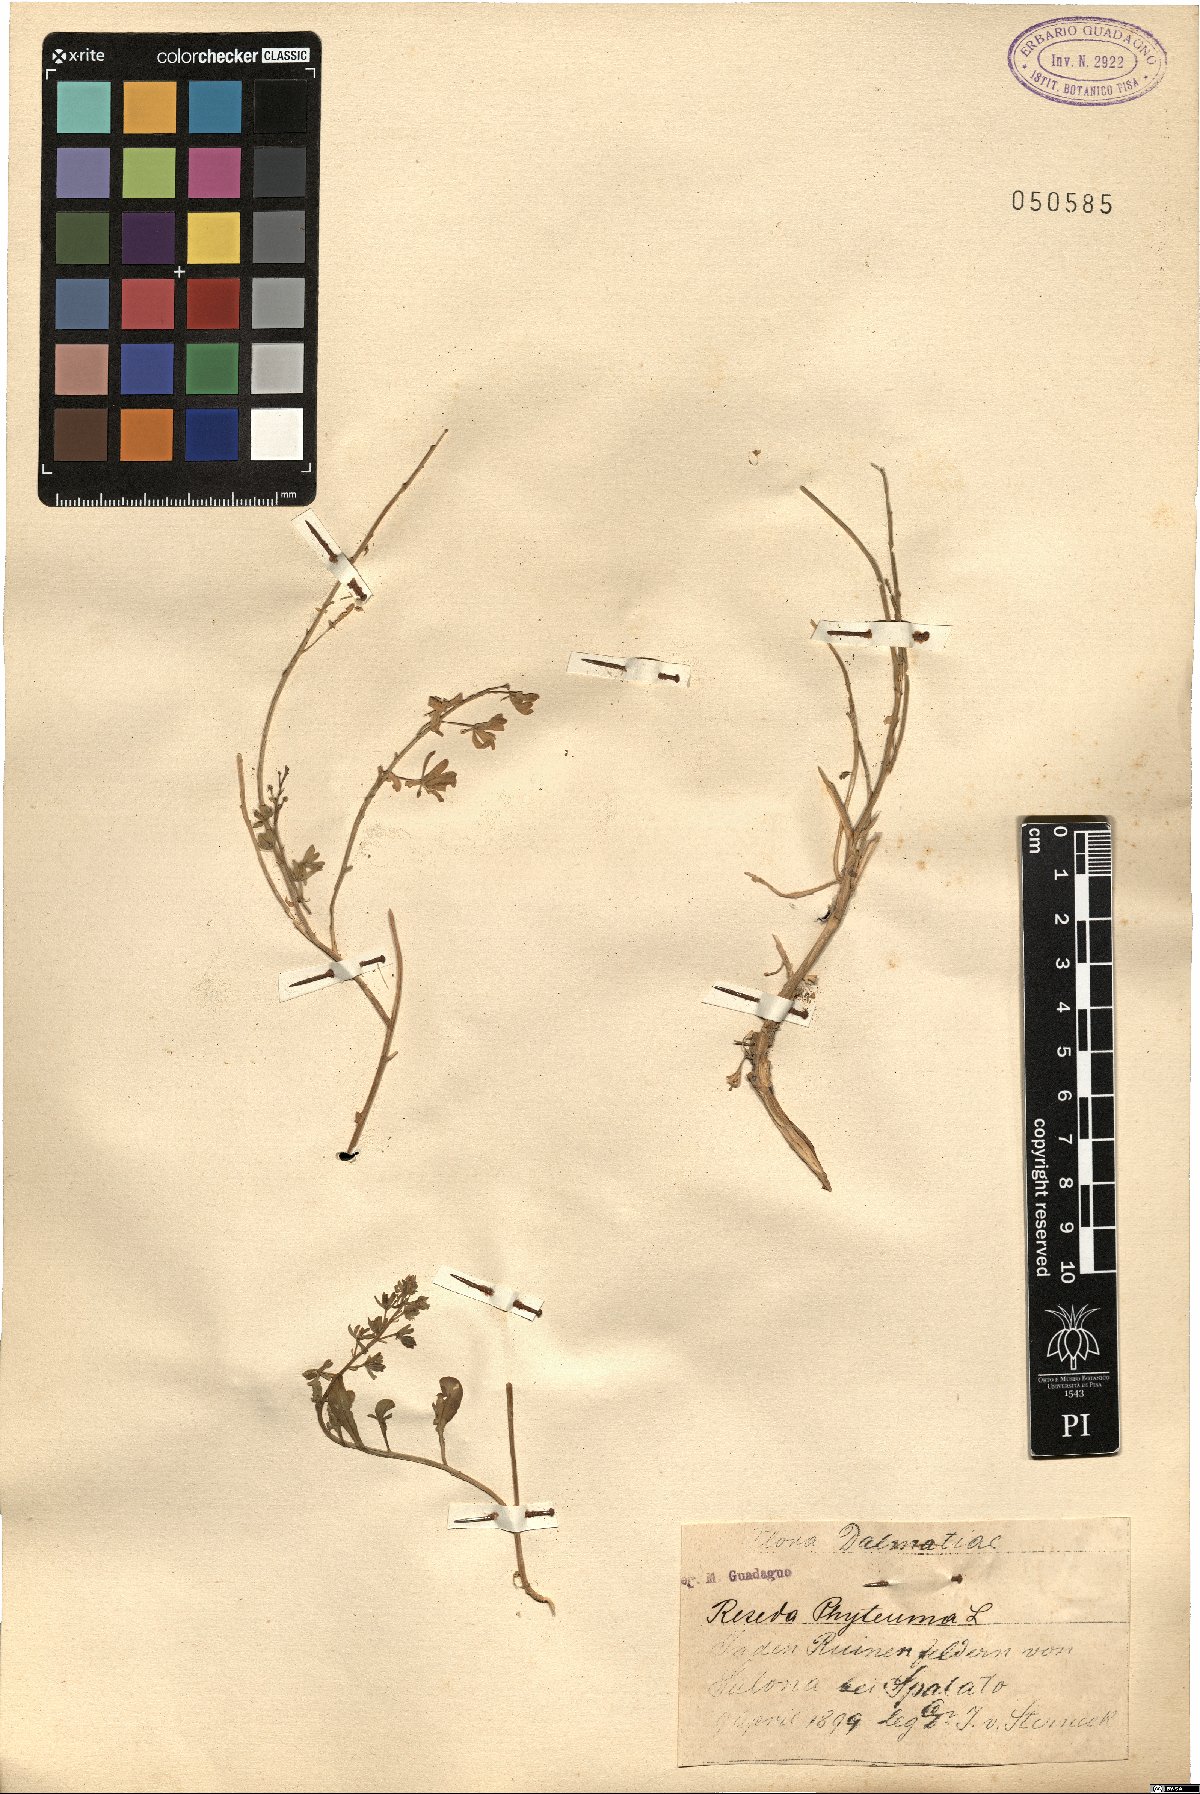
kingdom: Plantae
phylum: Tracheophyta
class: Magnoliopsida
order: Brassicales
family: Resedaceae
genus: Reseda
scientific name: Reseda phyteuma
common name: Corn mignonette
